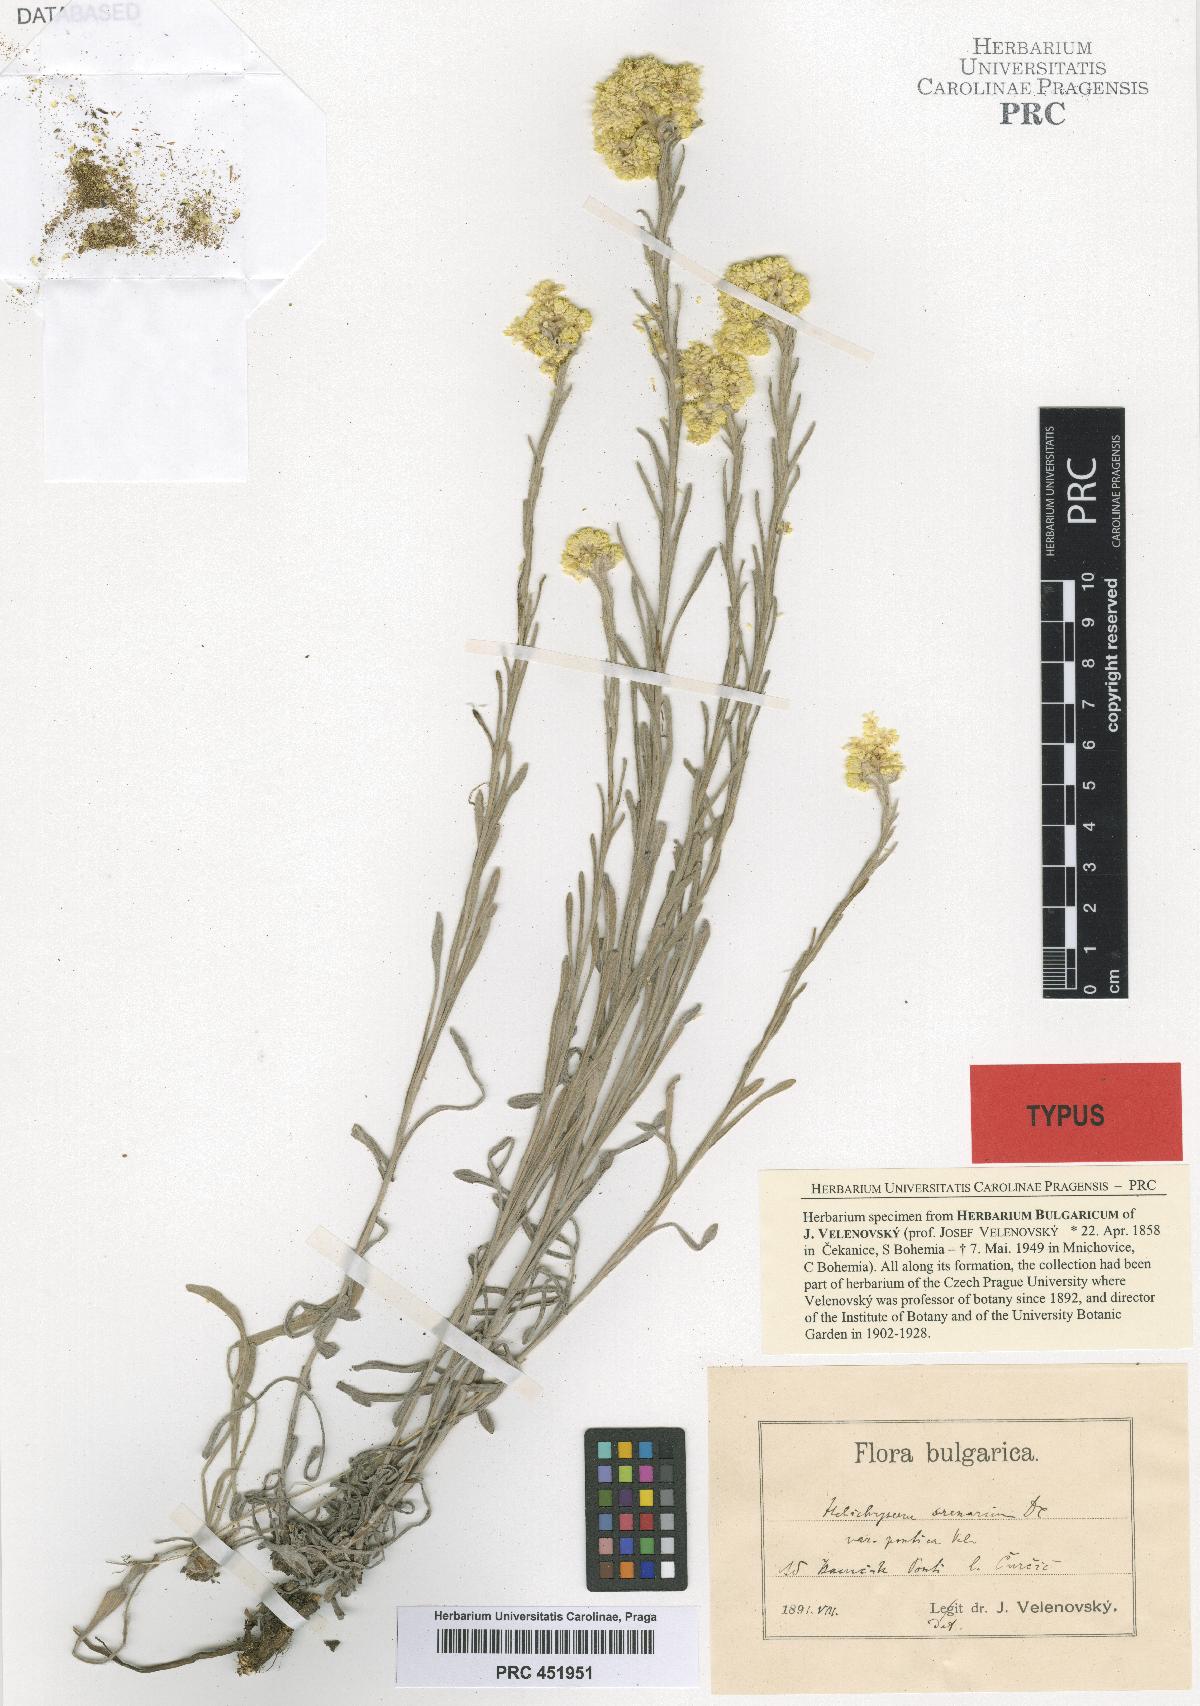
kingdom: Plantae
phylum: Tracheophyta
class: Magnoliopsida
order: Asterales
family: Asteraceae
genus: Helichrysum
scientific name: Helichrysum arenarium
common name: Strawflower
